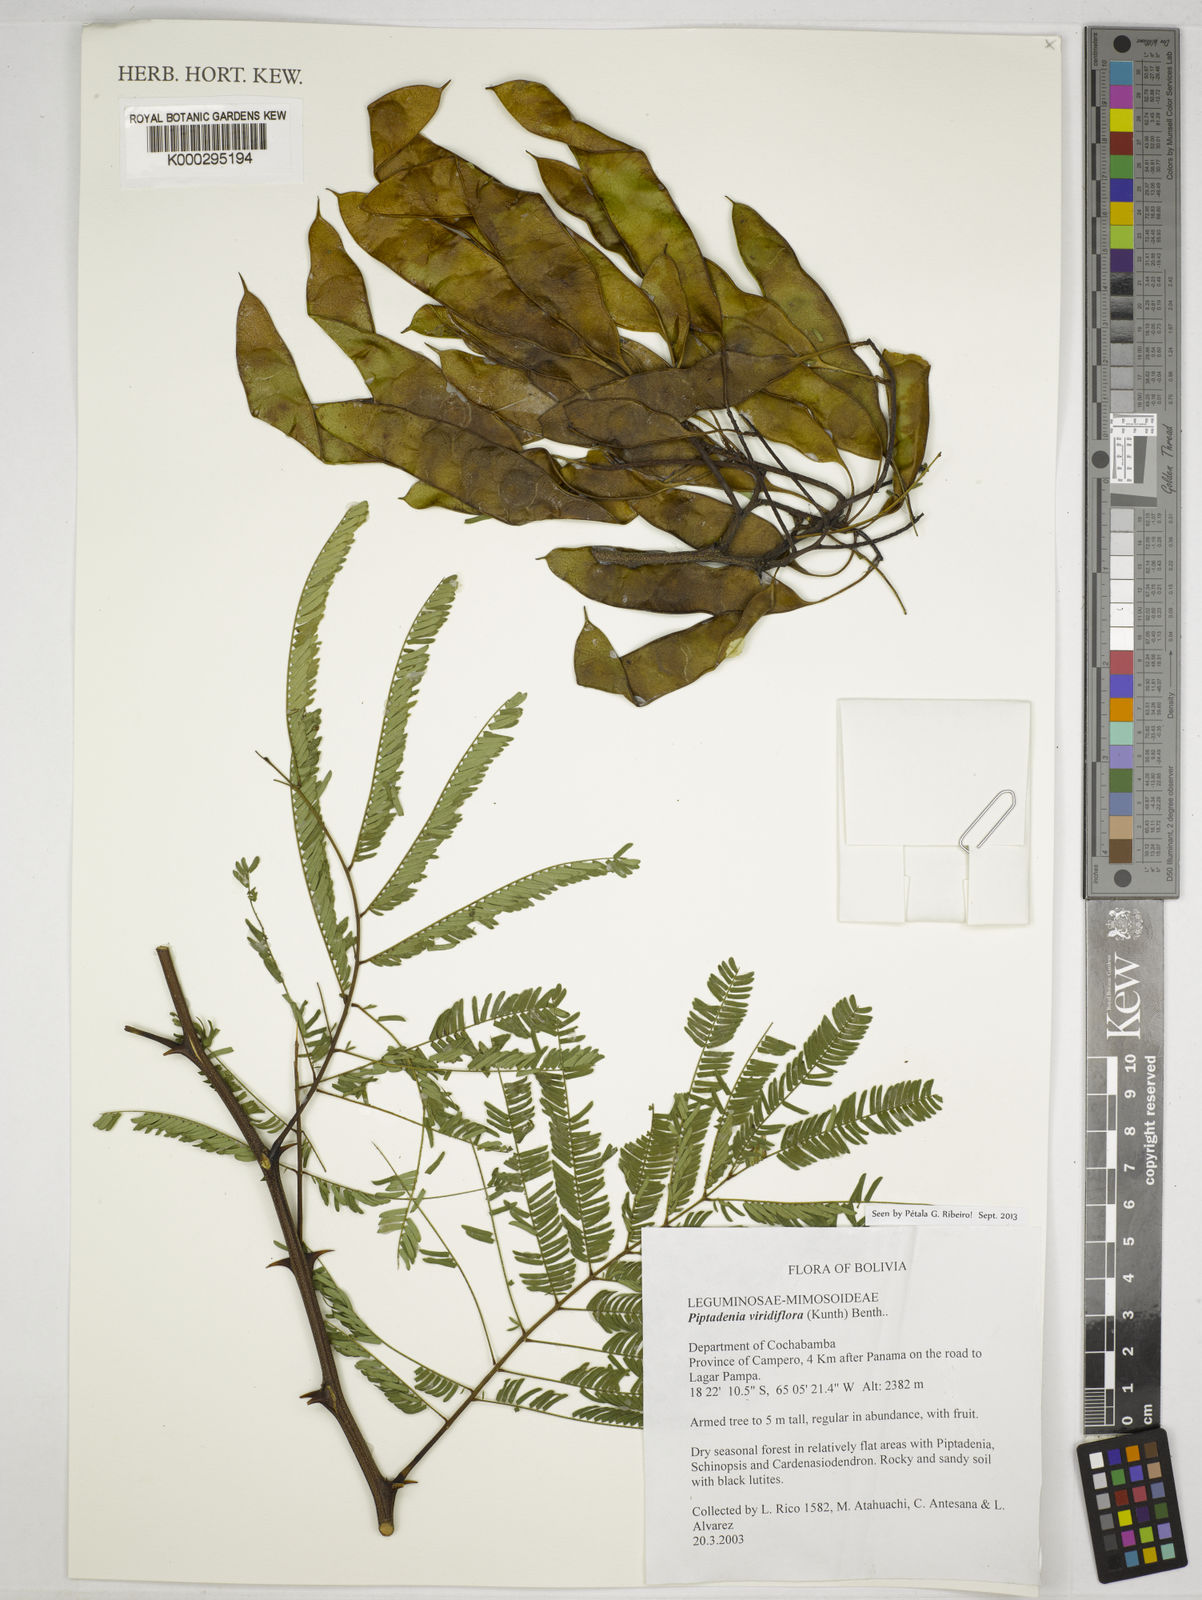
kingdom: Plantae
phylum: Tracheophyta
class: Magnoliopsida
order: Fabales
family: Fabaceae
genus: Lachesiodendron
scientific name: Lachesiodendron viridiflorum
